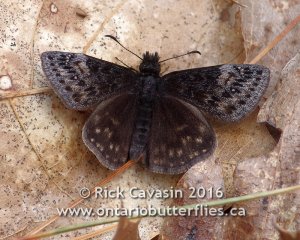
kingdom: Animalia
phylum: Arthropoda
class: Insecta
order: Lepidoptera
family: Hesperiidae
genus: Gesta
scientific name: Gesta
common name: Columbine Duskywing
